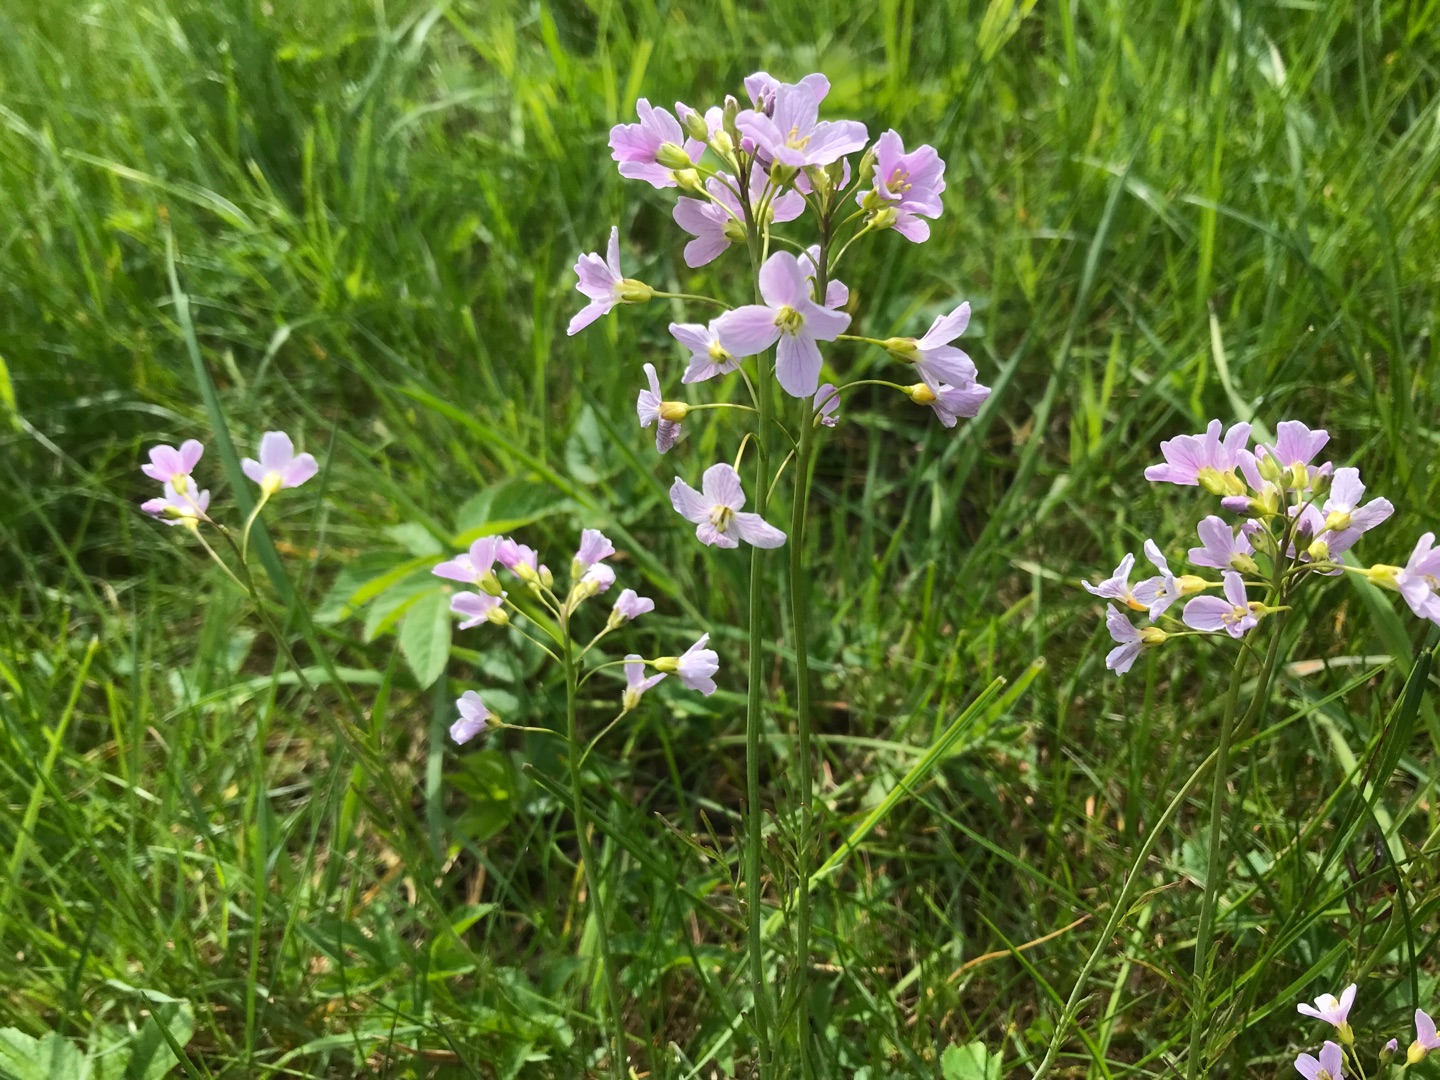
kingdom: Plantae
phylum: Tracheophyta
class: Magnoliopsida
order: Brassicales
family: Brassicaceae
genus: Cardamine
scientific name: Cardamine pratensis
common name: Engkarse
